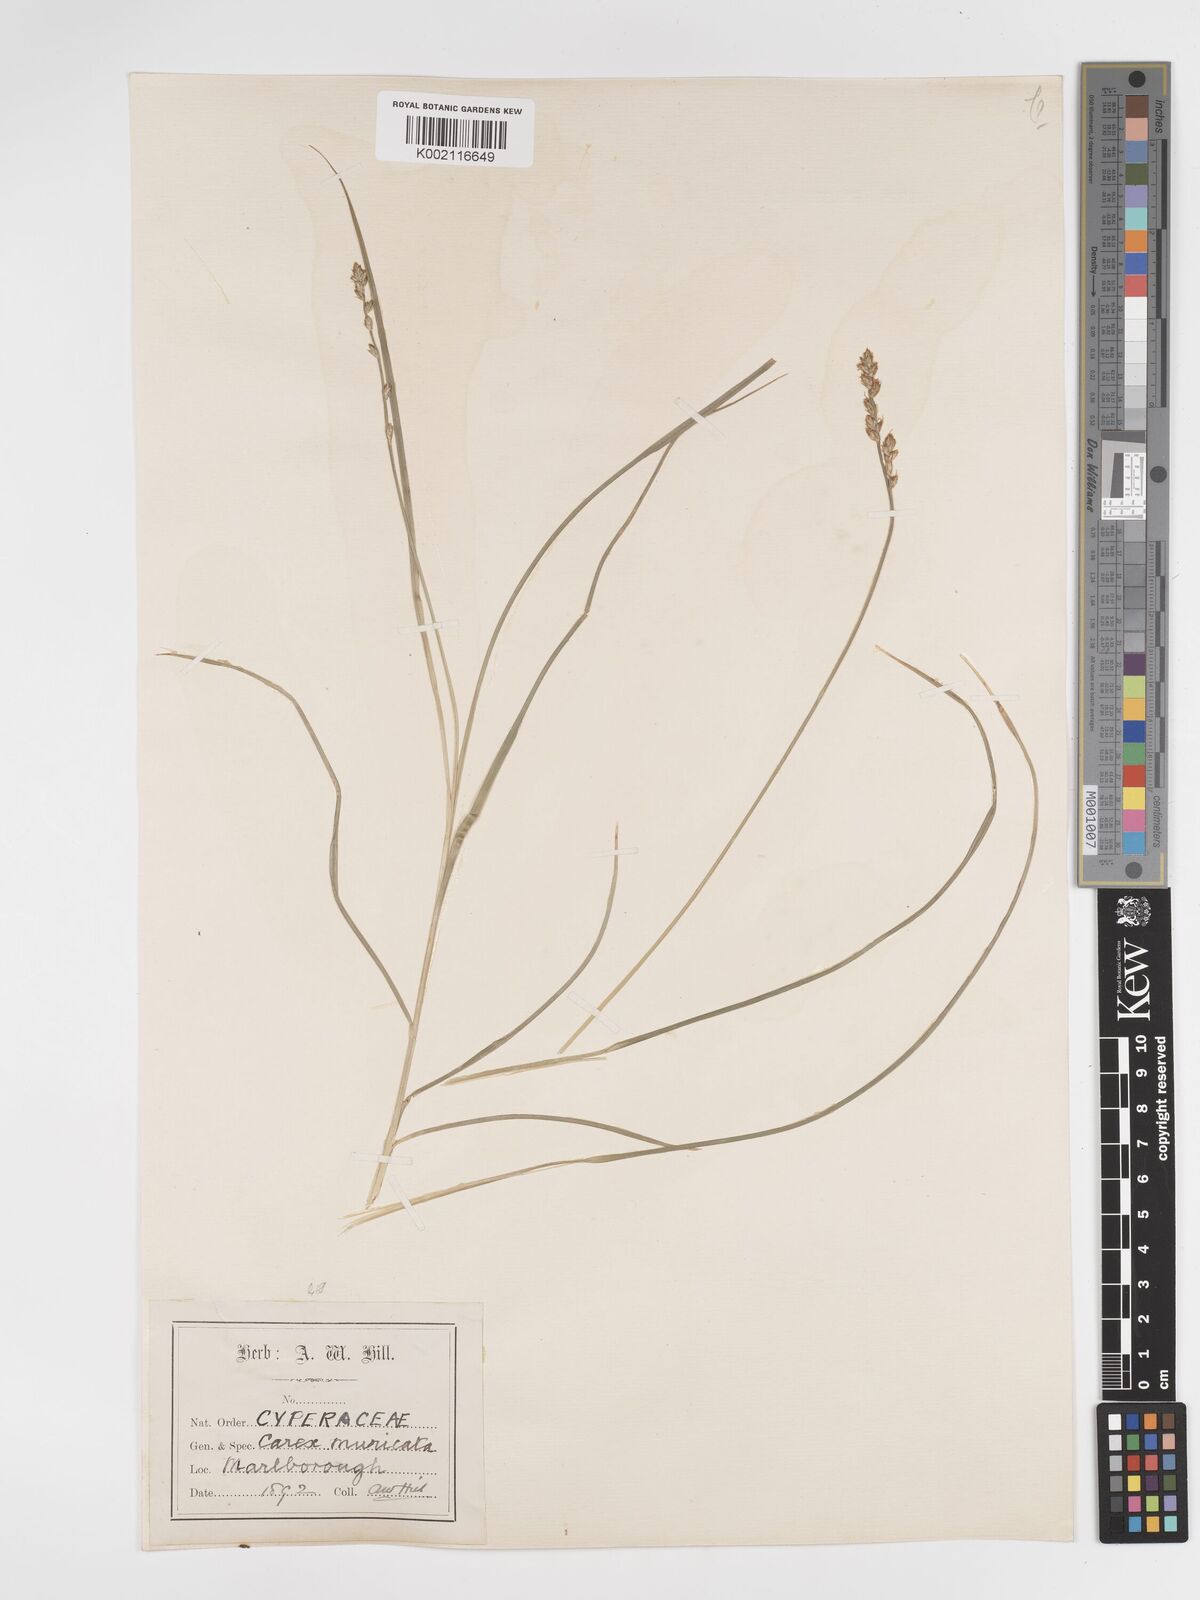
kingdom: Plantae
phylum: Tracheophyta
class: Liliopsida
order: Poales
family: Cyperaceae
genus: Carex
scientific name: Carex divulsa
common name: Grassland sedge
